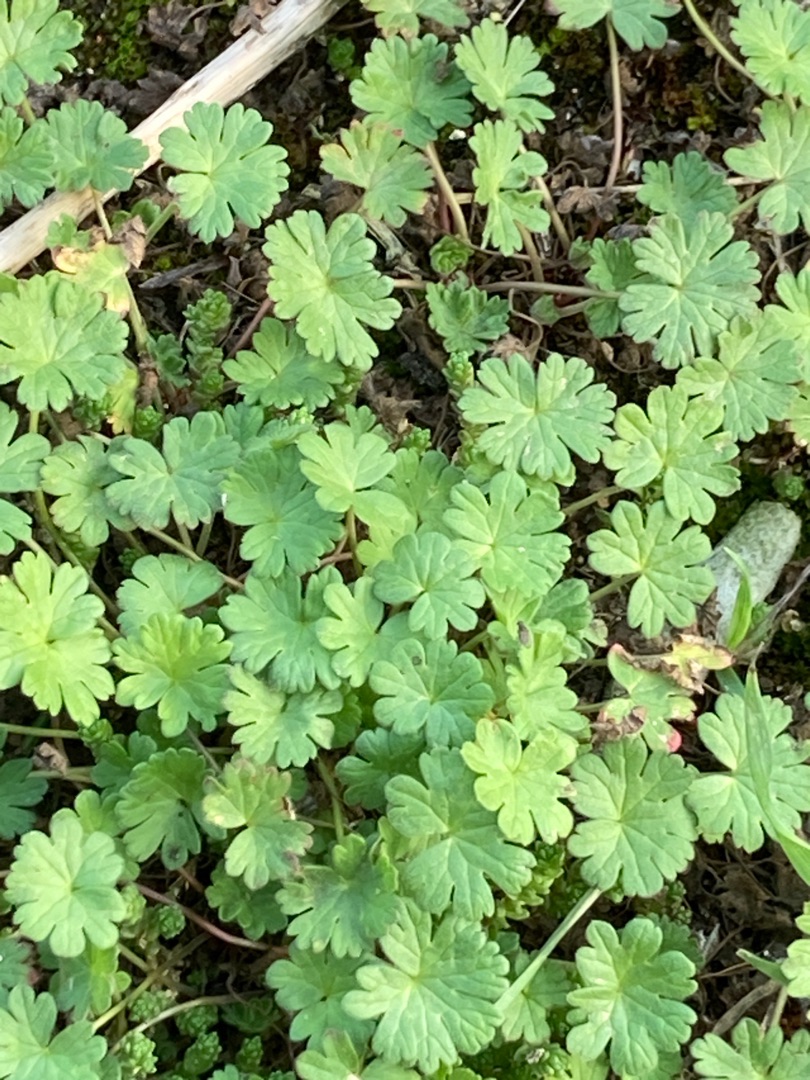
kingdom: Plantae
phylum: Tracheophyta
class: Magnoliopsida
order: Geraniales
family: Geraniaceae
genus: Geranium
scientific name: Geranium
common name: Storkenæbslægten
